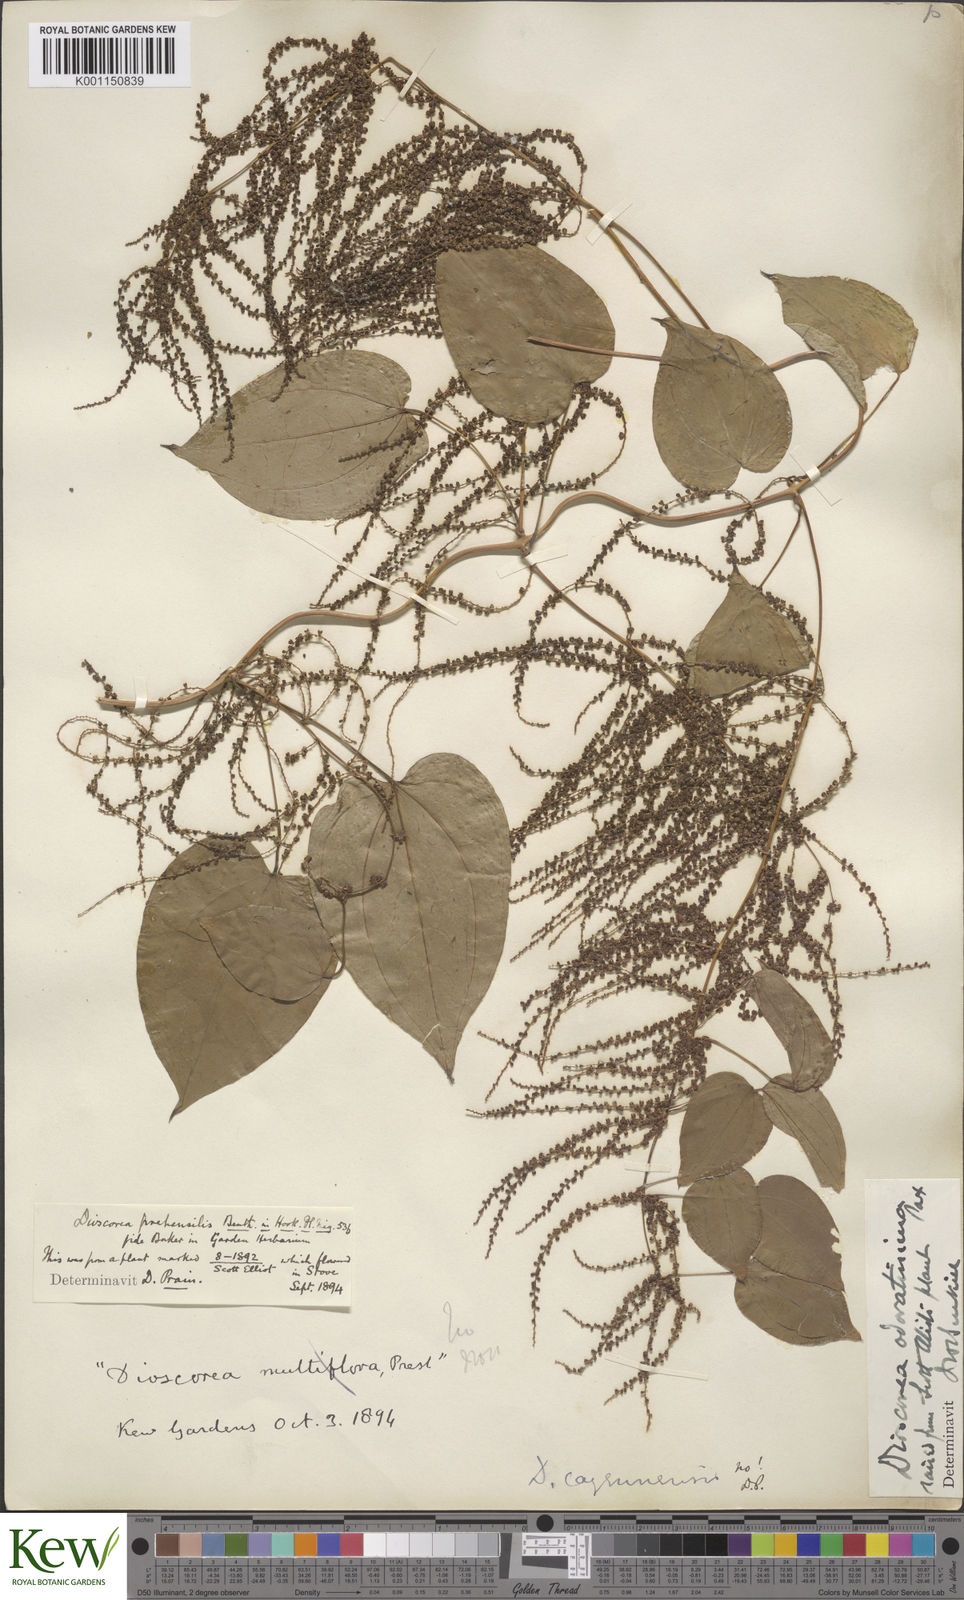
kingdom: Plantae
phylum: Tracheophyta
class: Liliopsida
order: Dioscoreales
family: Dioscoreaceae
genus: Dioscorea
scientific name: Dioscorea praehensilis
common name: Bush yam
